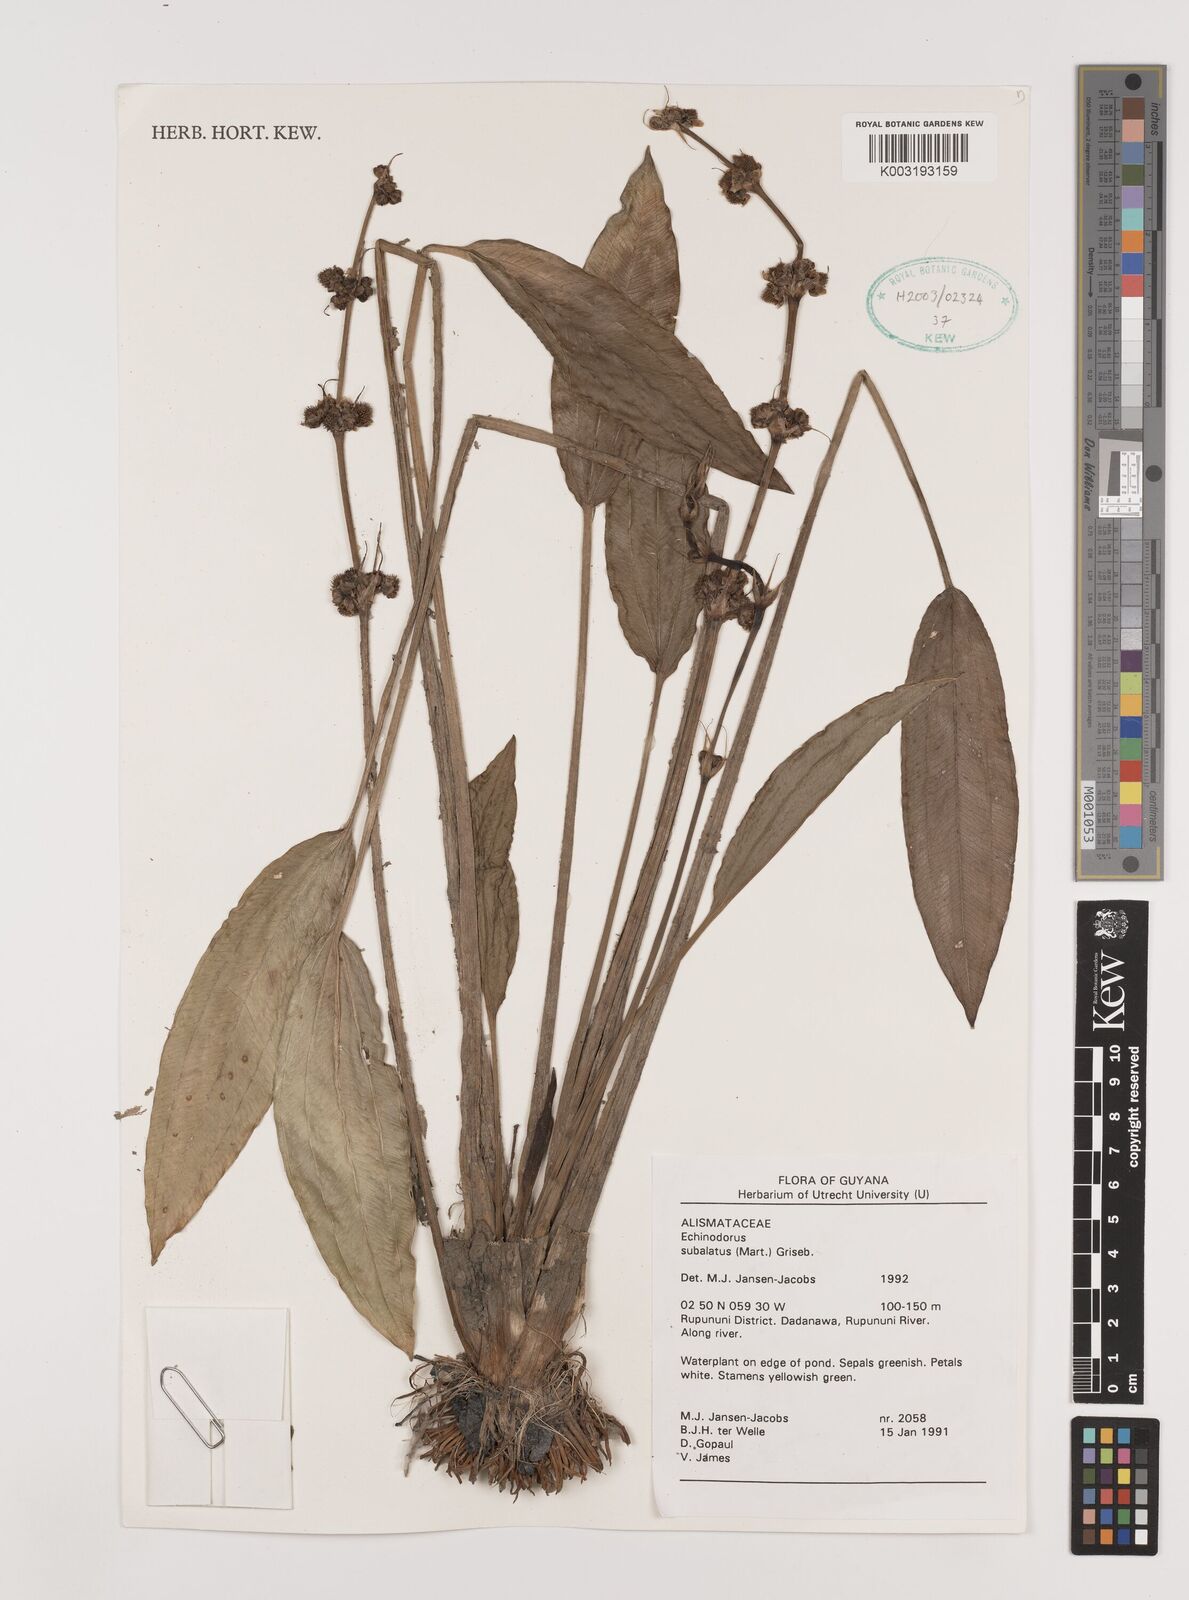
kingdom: Plantae
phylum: Tracheophyta
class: Liliopsida
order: Alismatales
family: Alismataceae
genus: Aquarius
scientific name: Aquarius subulatus
